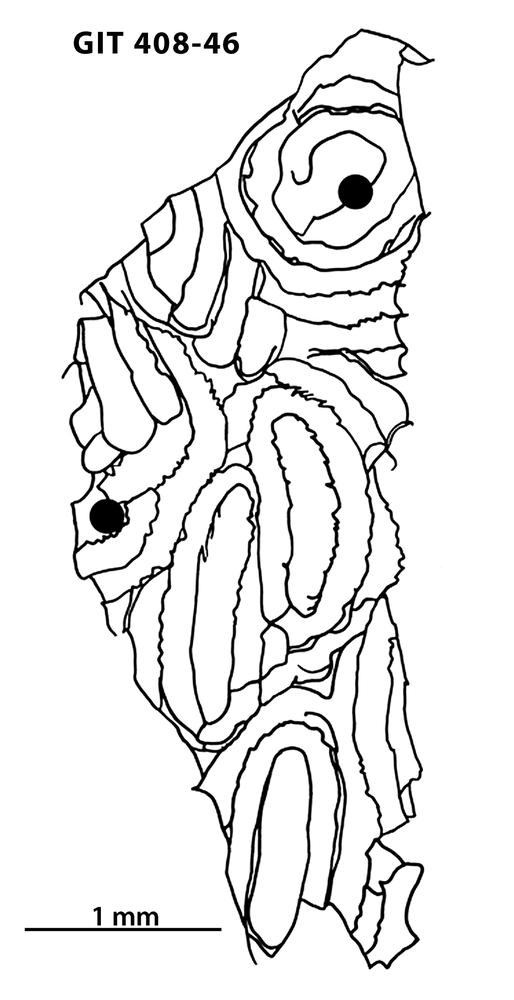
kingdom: Animalia
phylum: Chordata
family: Cyathaspididae
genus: Cyathaspis
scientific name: Cyathaspis
